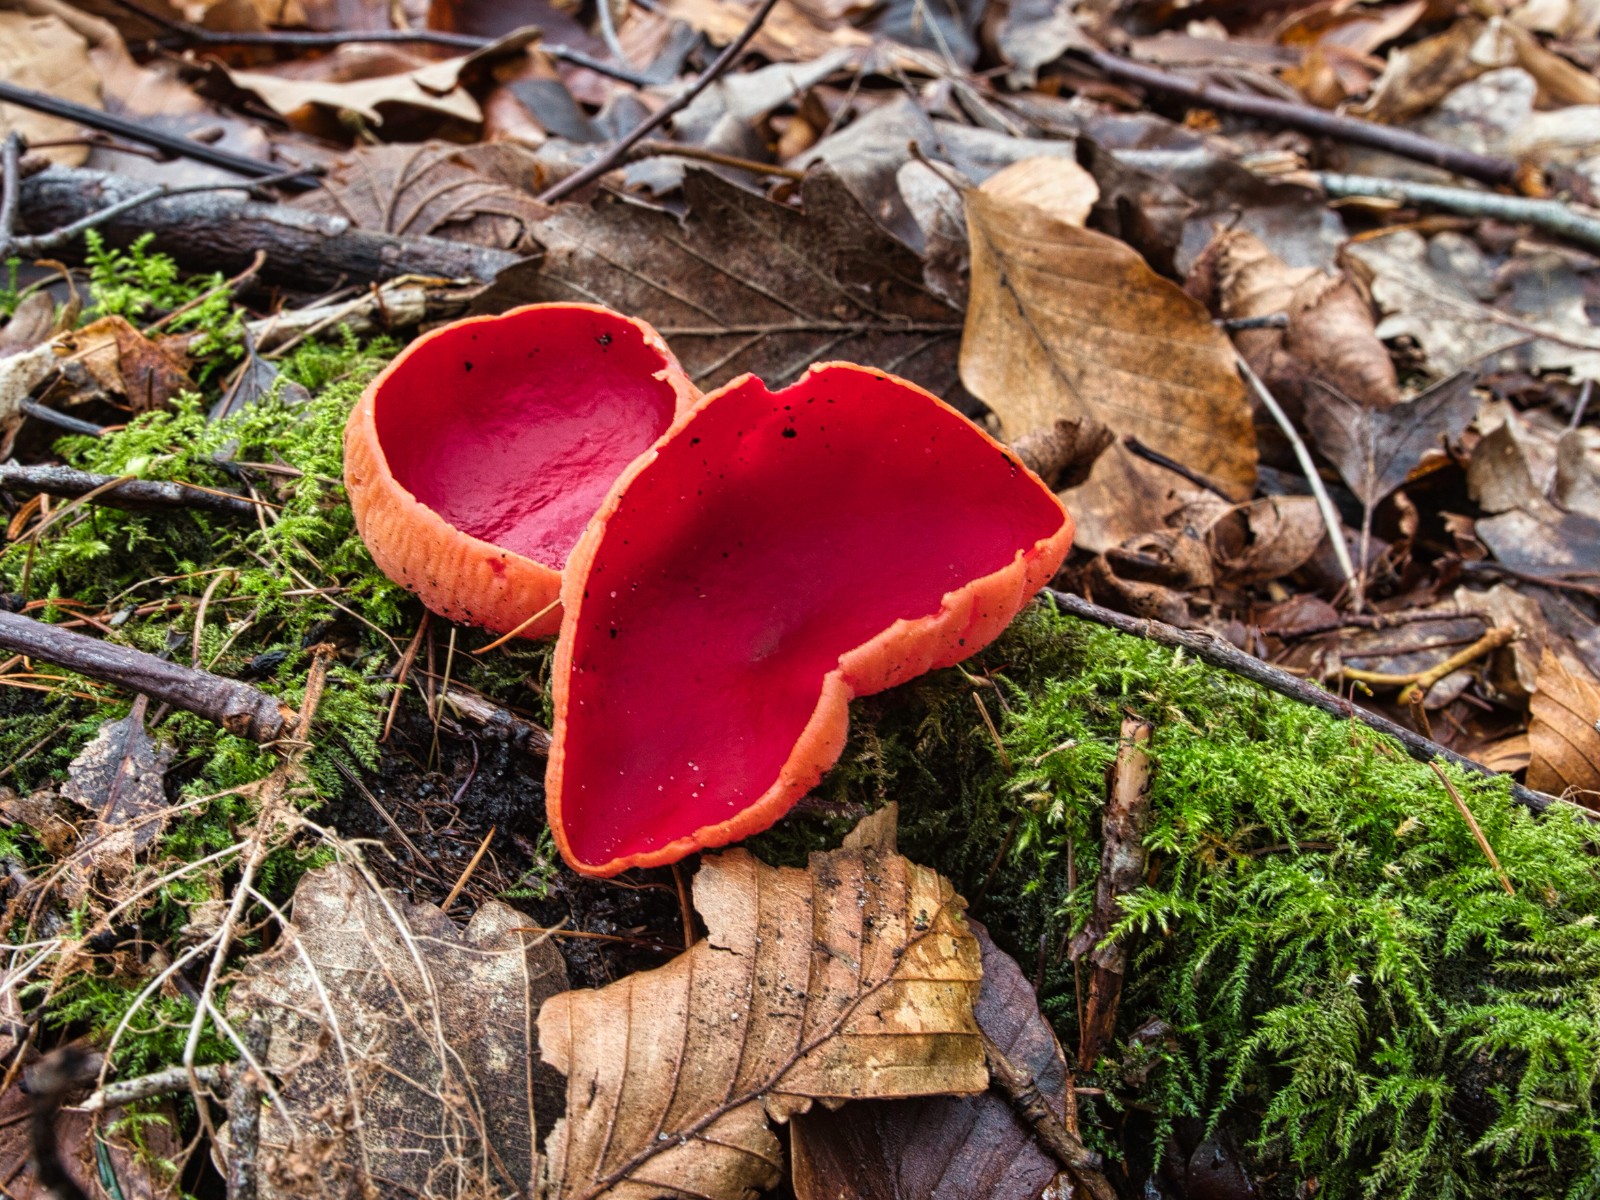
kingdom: Fungi
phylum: Ascomycota
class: Pezizomycetes
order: Pezizales
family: Sarcoscyphaceae
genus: Sarcoscypha
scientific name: Sarcoscypha austriaca
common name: krølhåret pragtbæger
